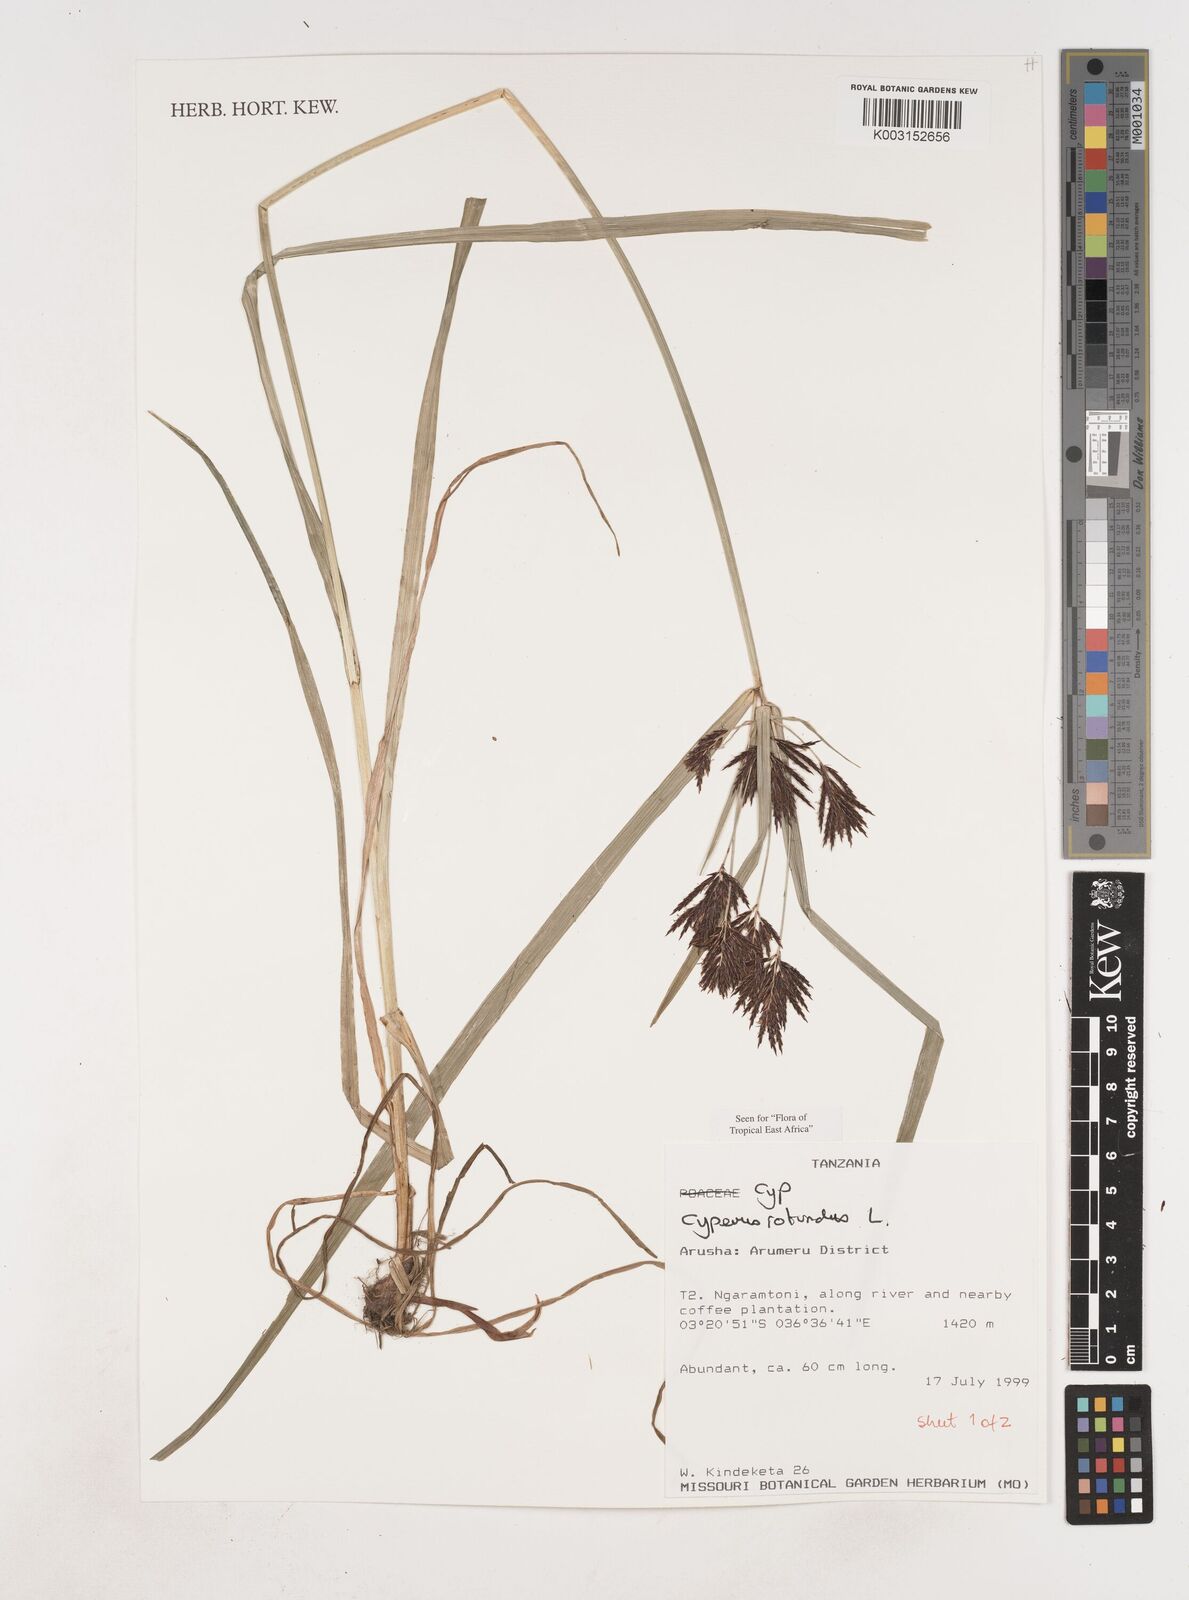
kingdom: Plantae
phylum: Tracheophyta
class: Liliopsida
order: Poales
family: Cyperaceae
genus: Cyperus
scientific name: Cyperus rotundus
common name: Nutgrass
